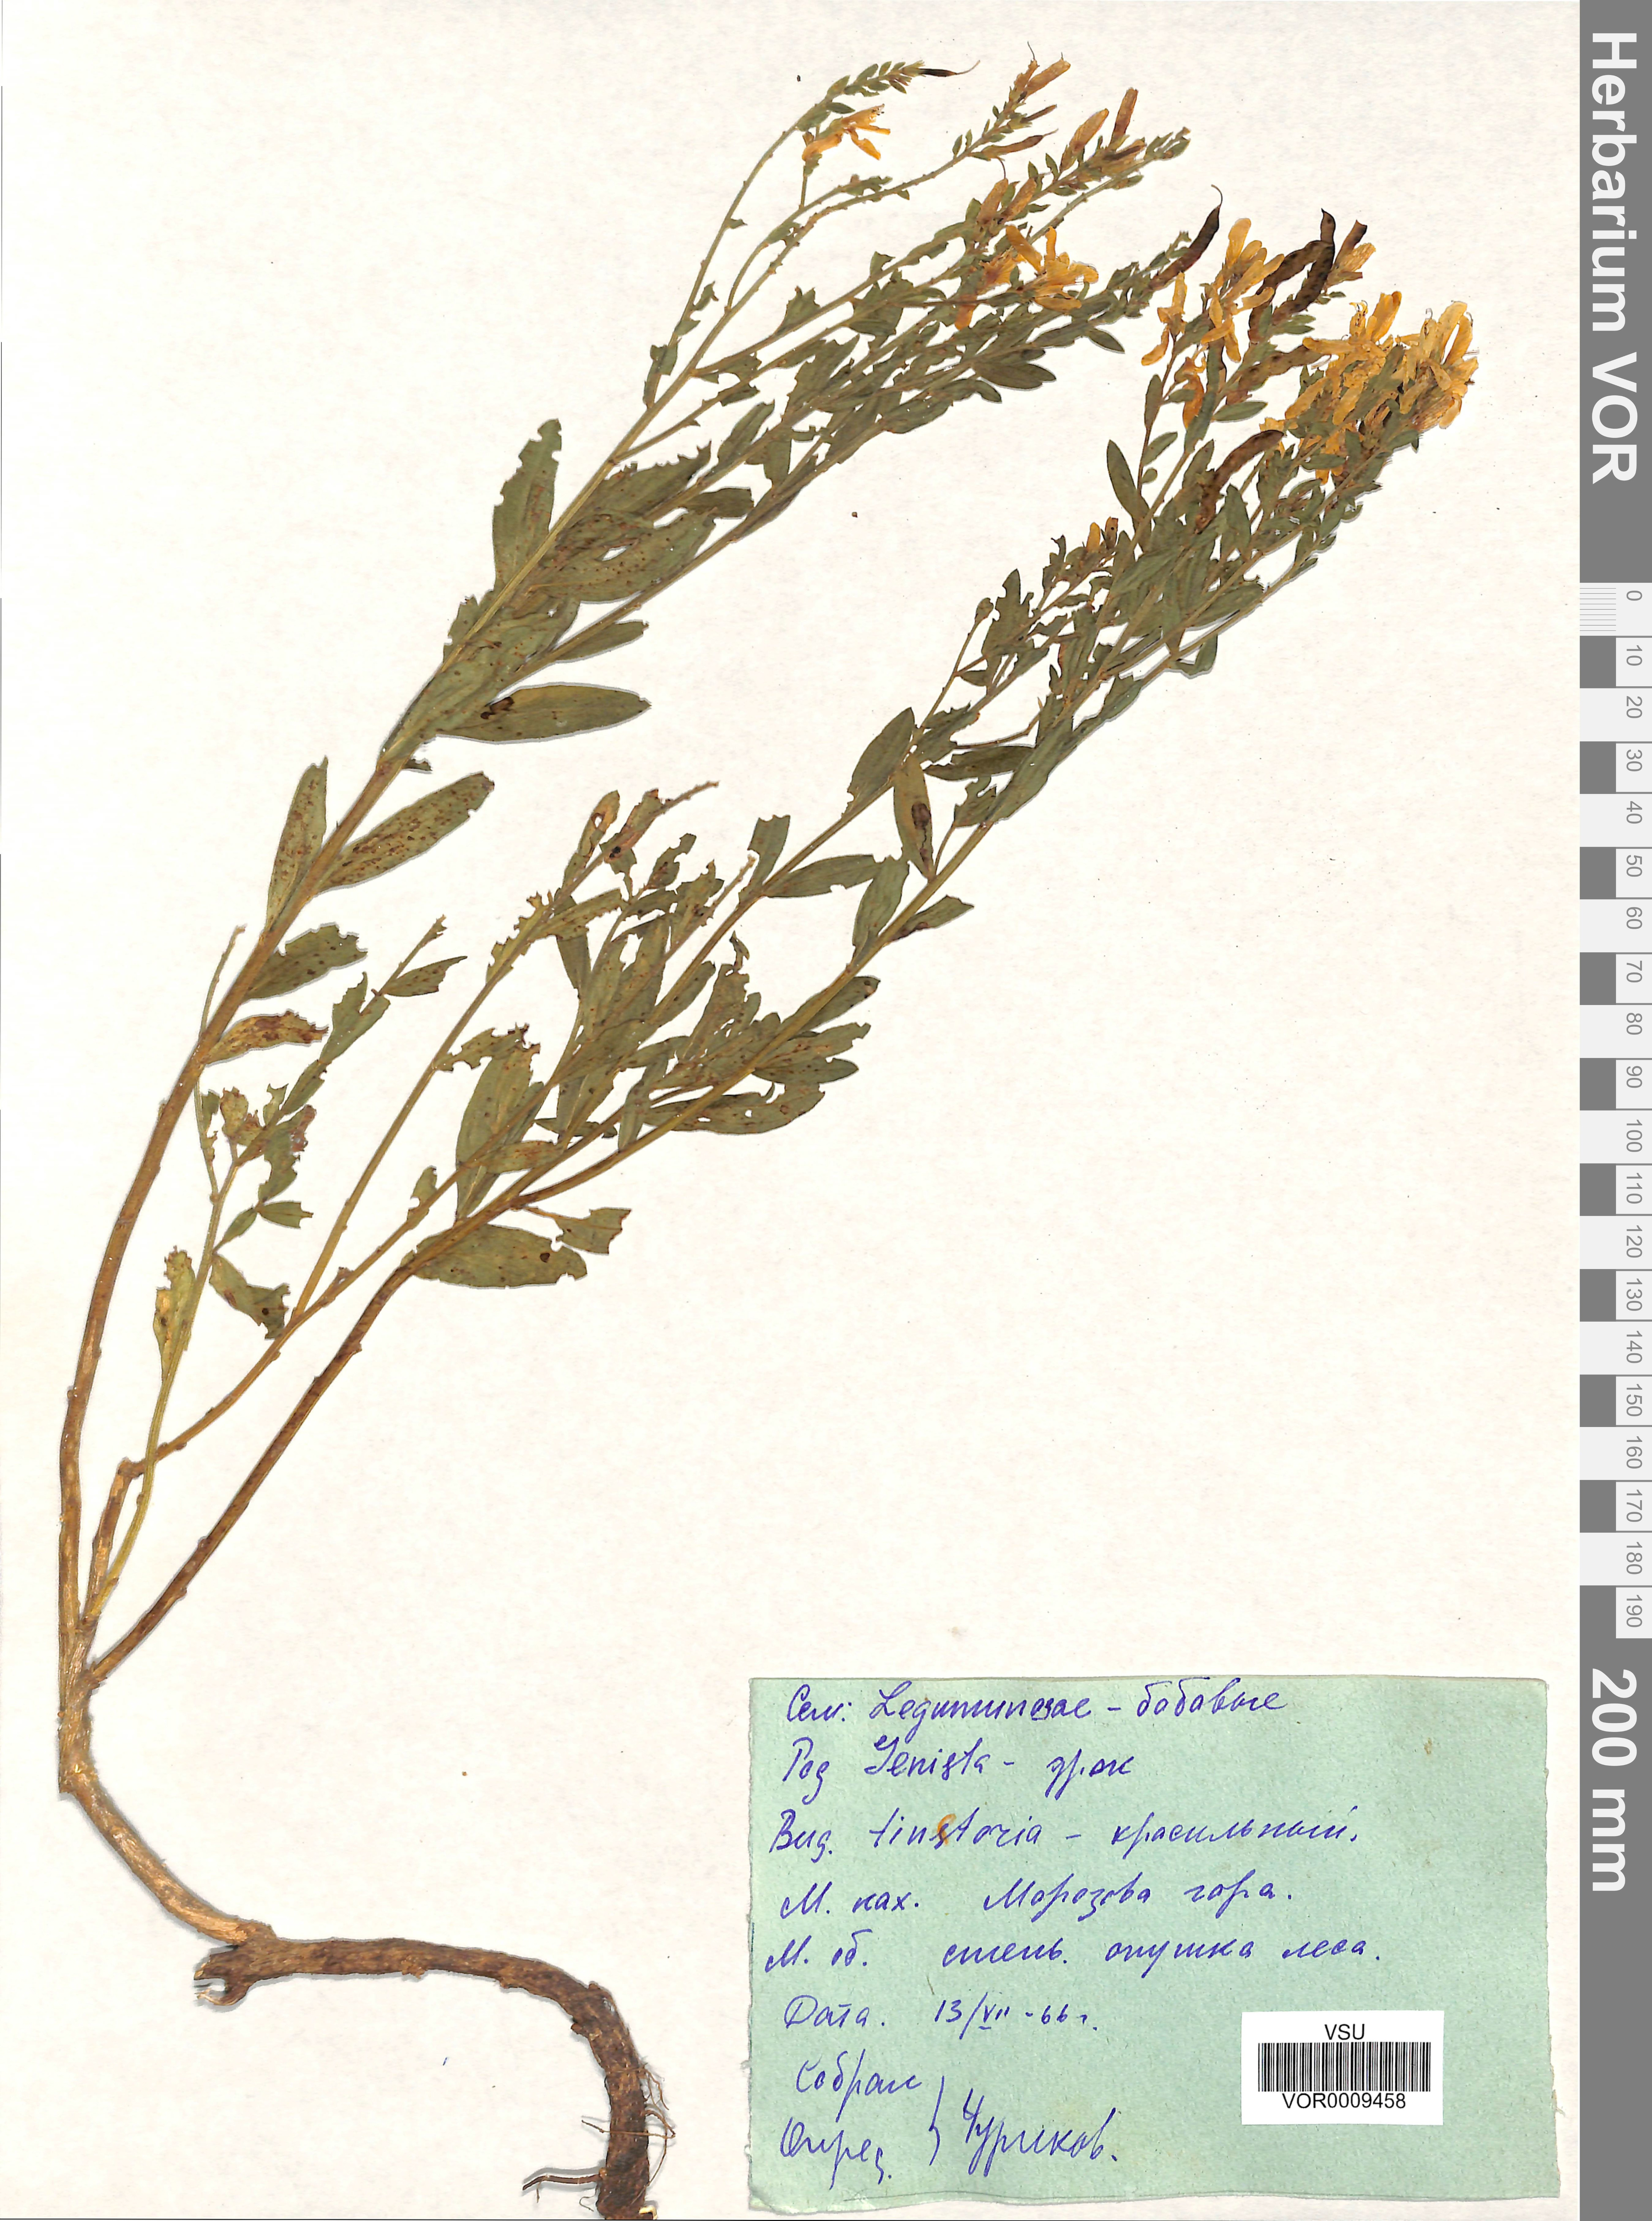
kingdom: Plantae
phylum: Tracheophyta
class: Magnoliopsida
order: Fabales
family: Fabaceae
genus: Genista
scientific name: Genista tinctoria
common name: Dyer's greenweed
